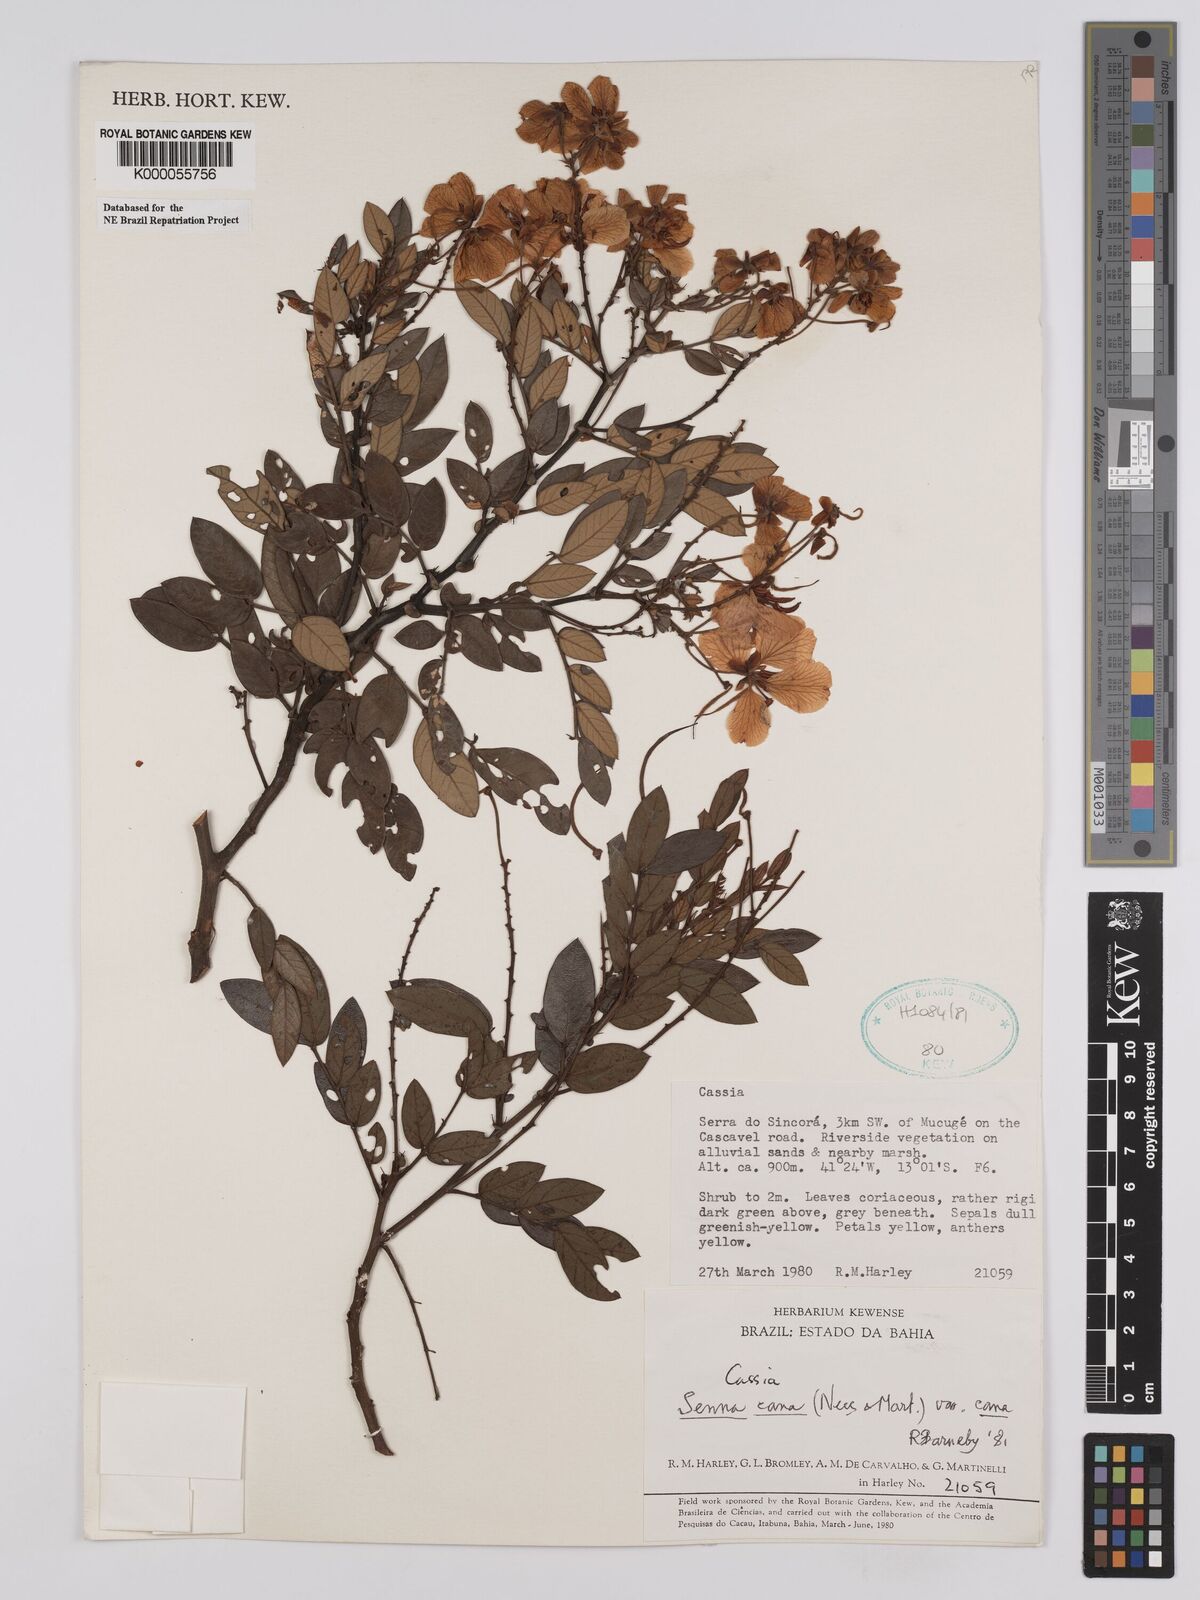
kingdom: Plantae
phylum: Tracheophyta
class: Magnoliopsida
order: Fabales
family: Fabaceae
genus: Senna
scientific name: Senna cana
